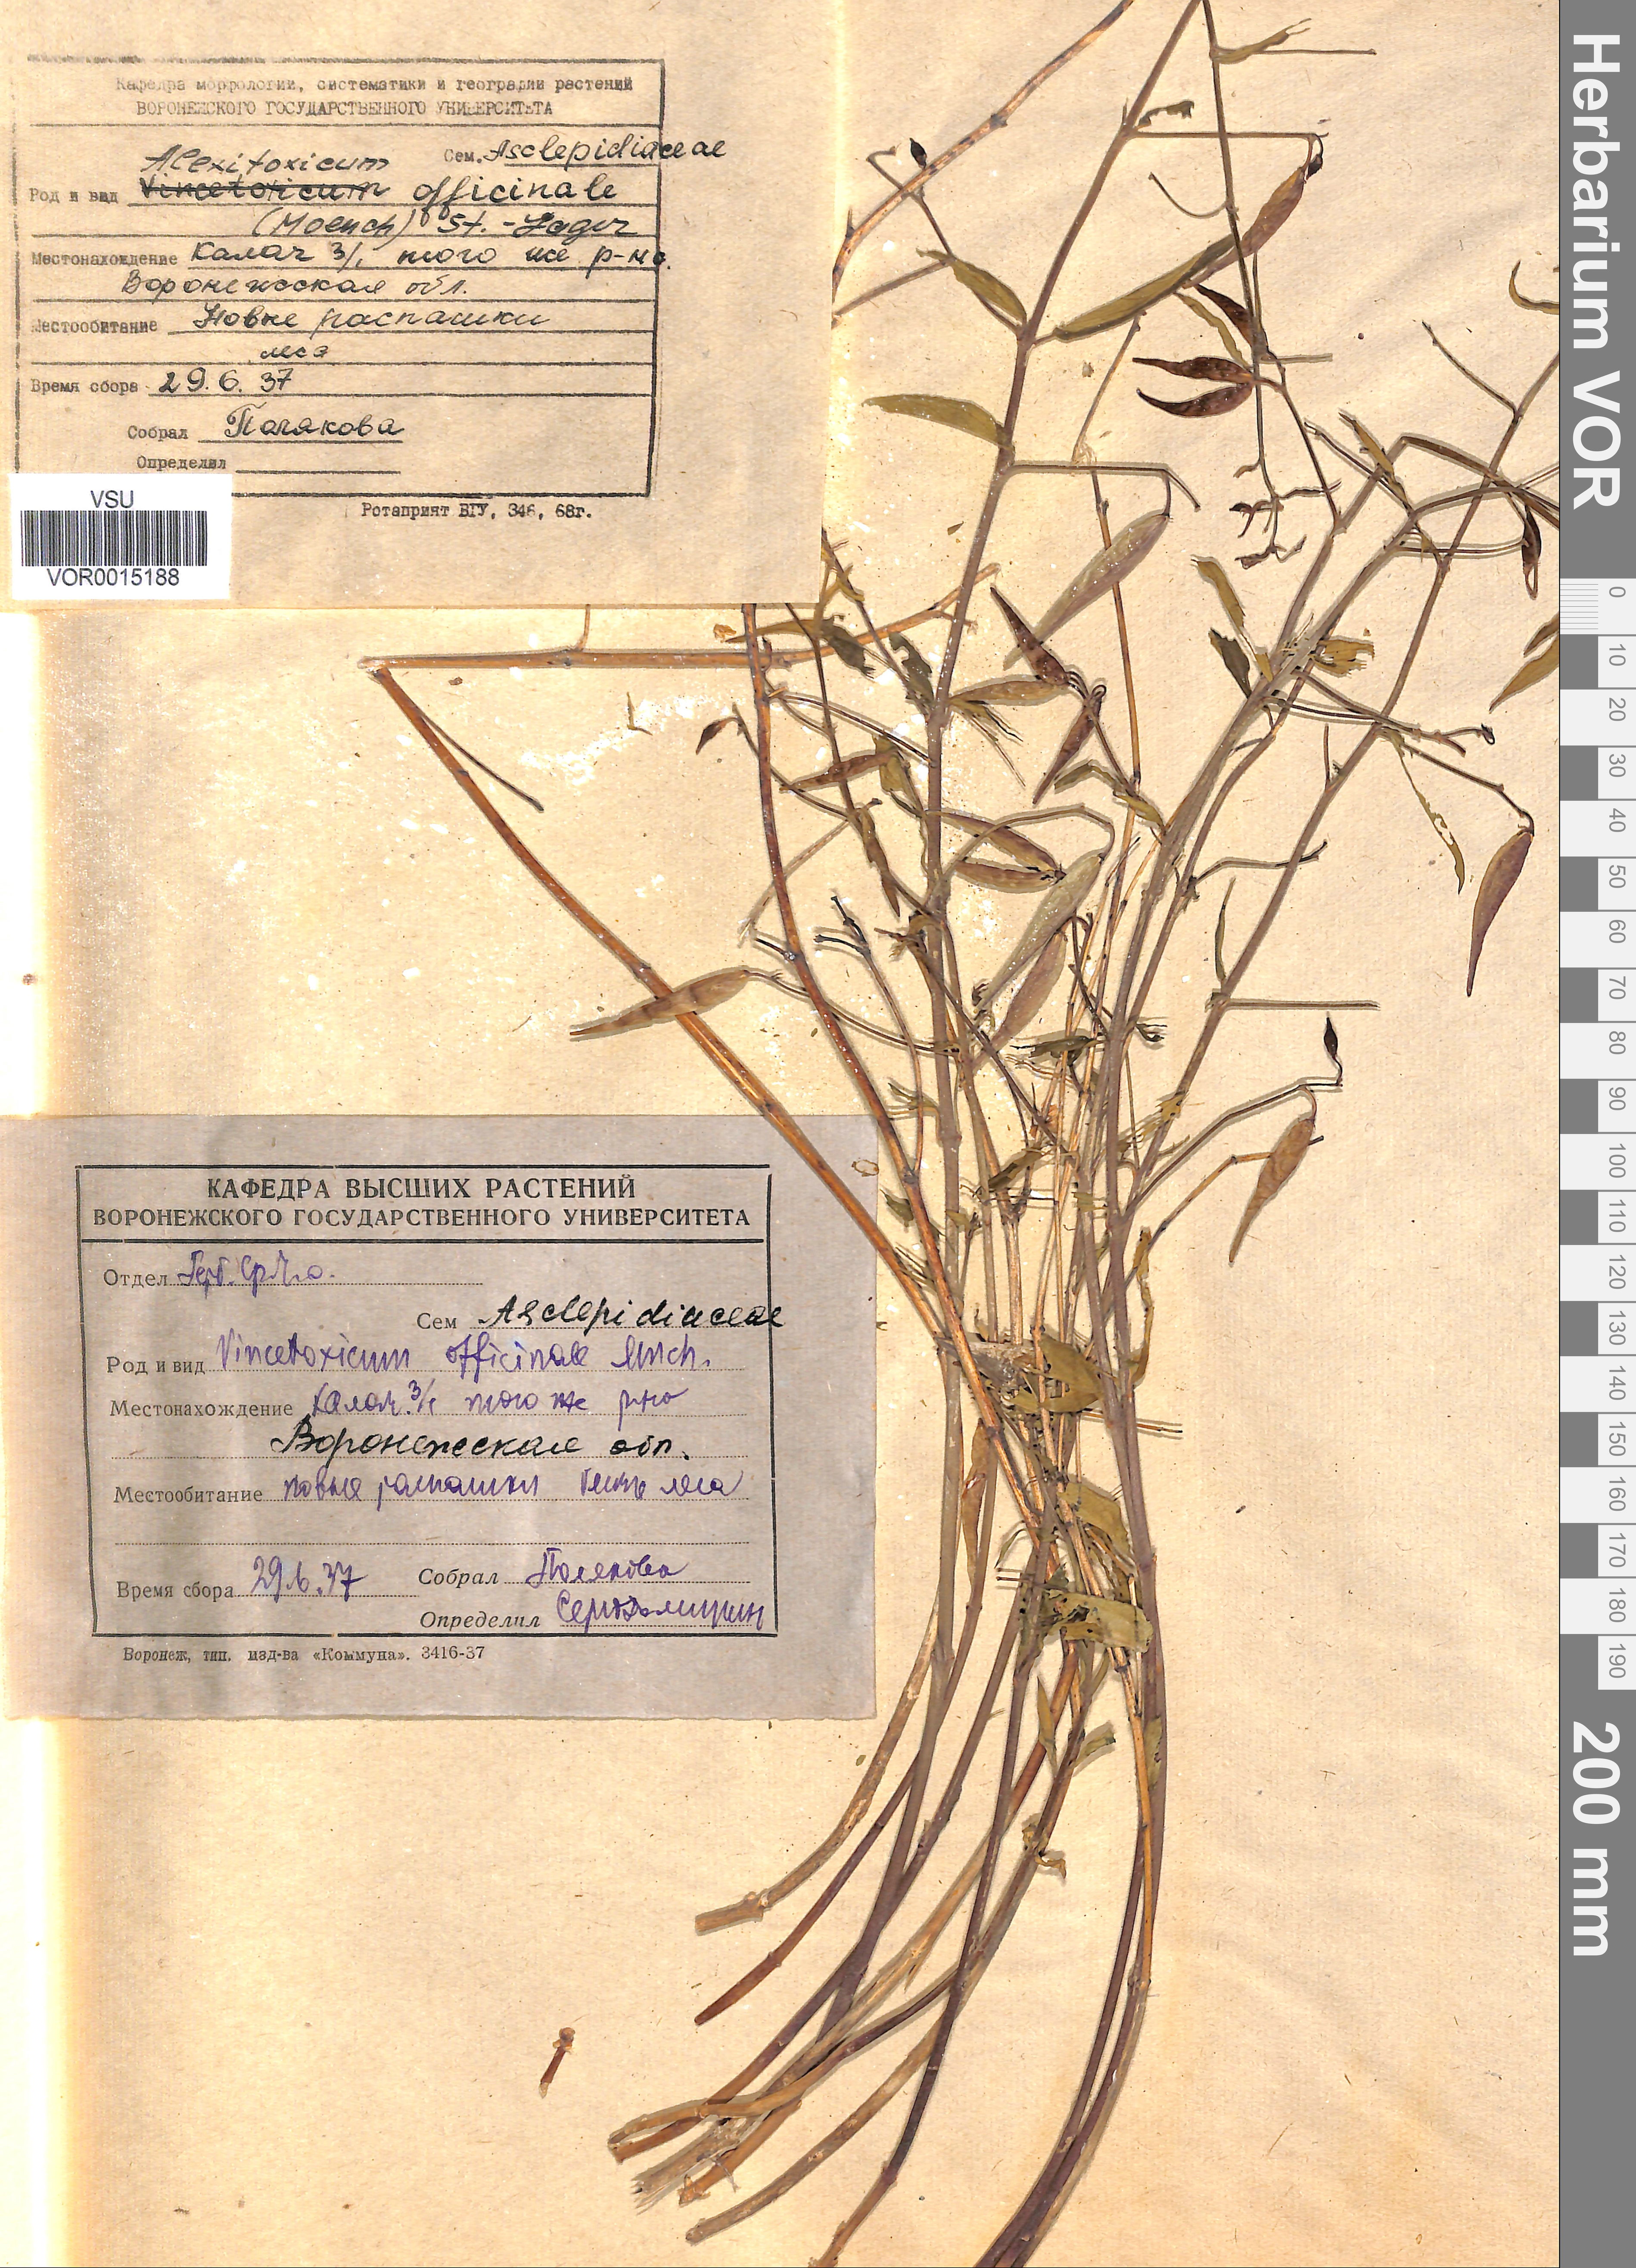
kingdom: Plantae
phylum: Tracheophyta
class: Magnoliopsida
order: Gentianales
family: Apocynaceae
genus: Vincetoxicum
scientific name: Vincetoxicum hirundinaria
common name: White swallowwort
